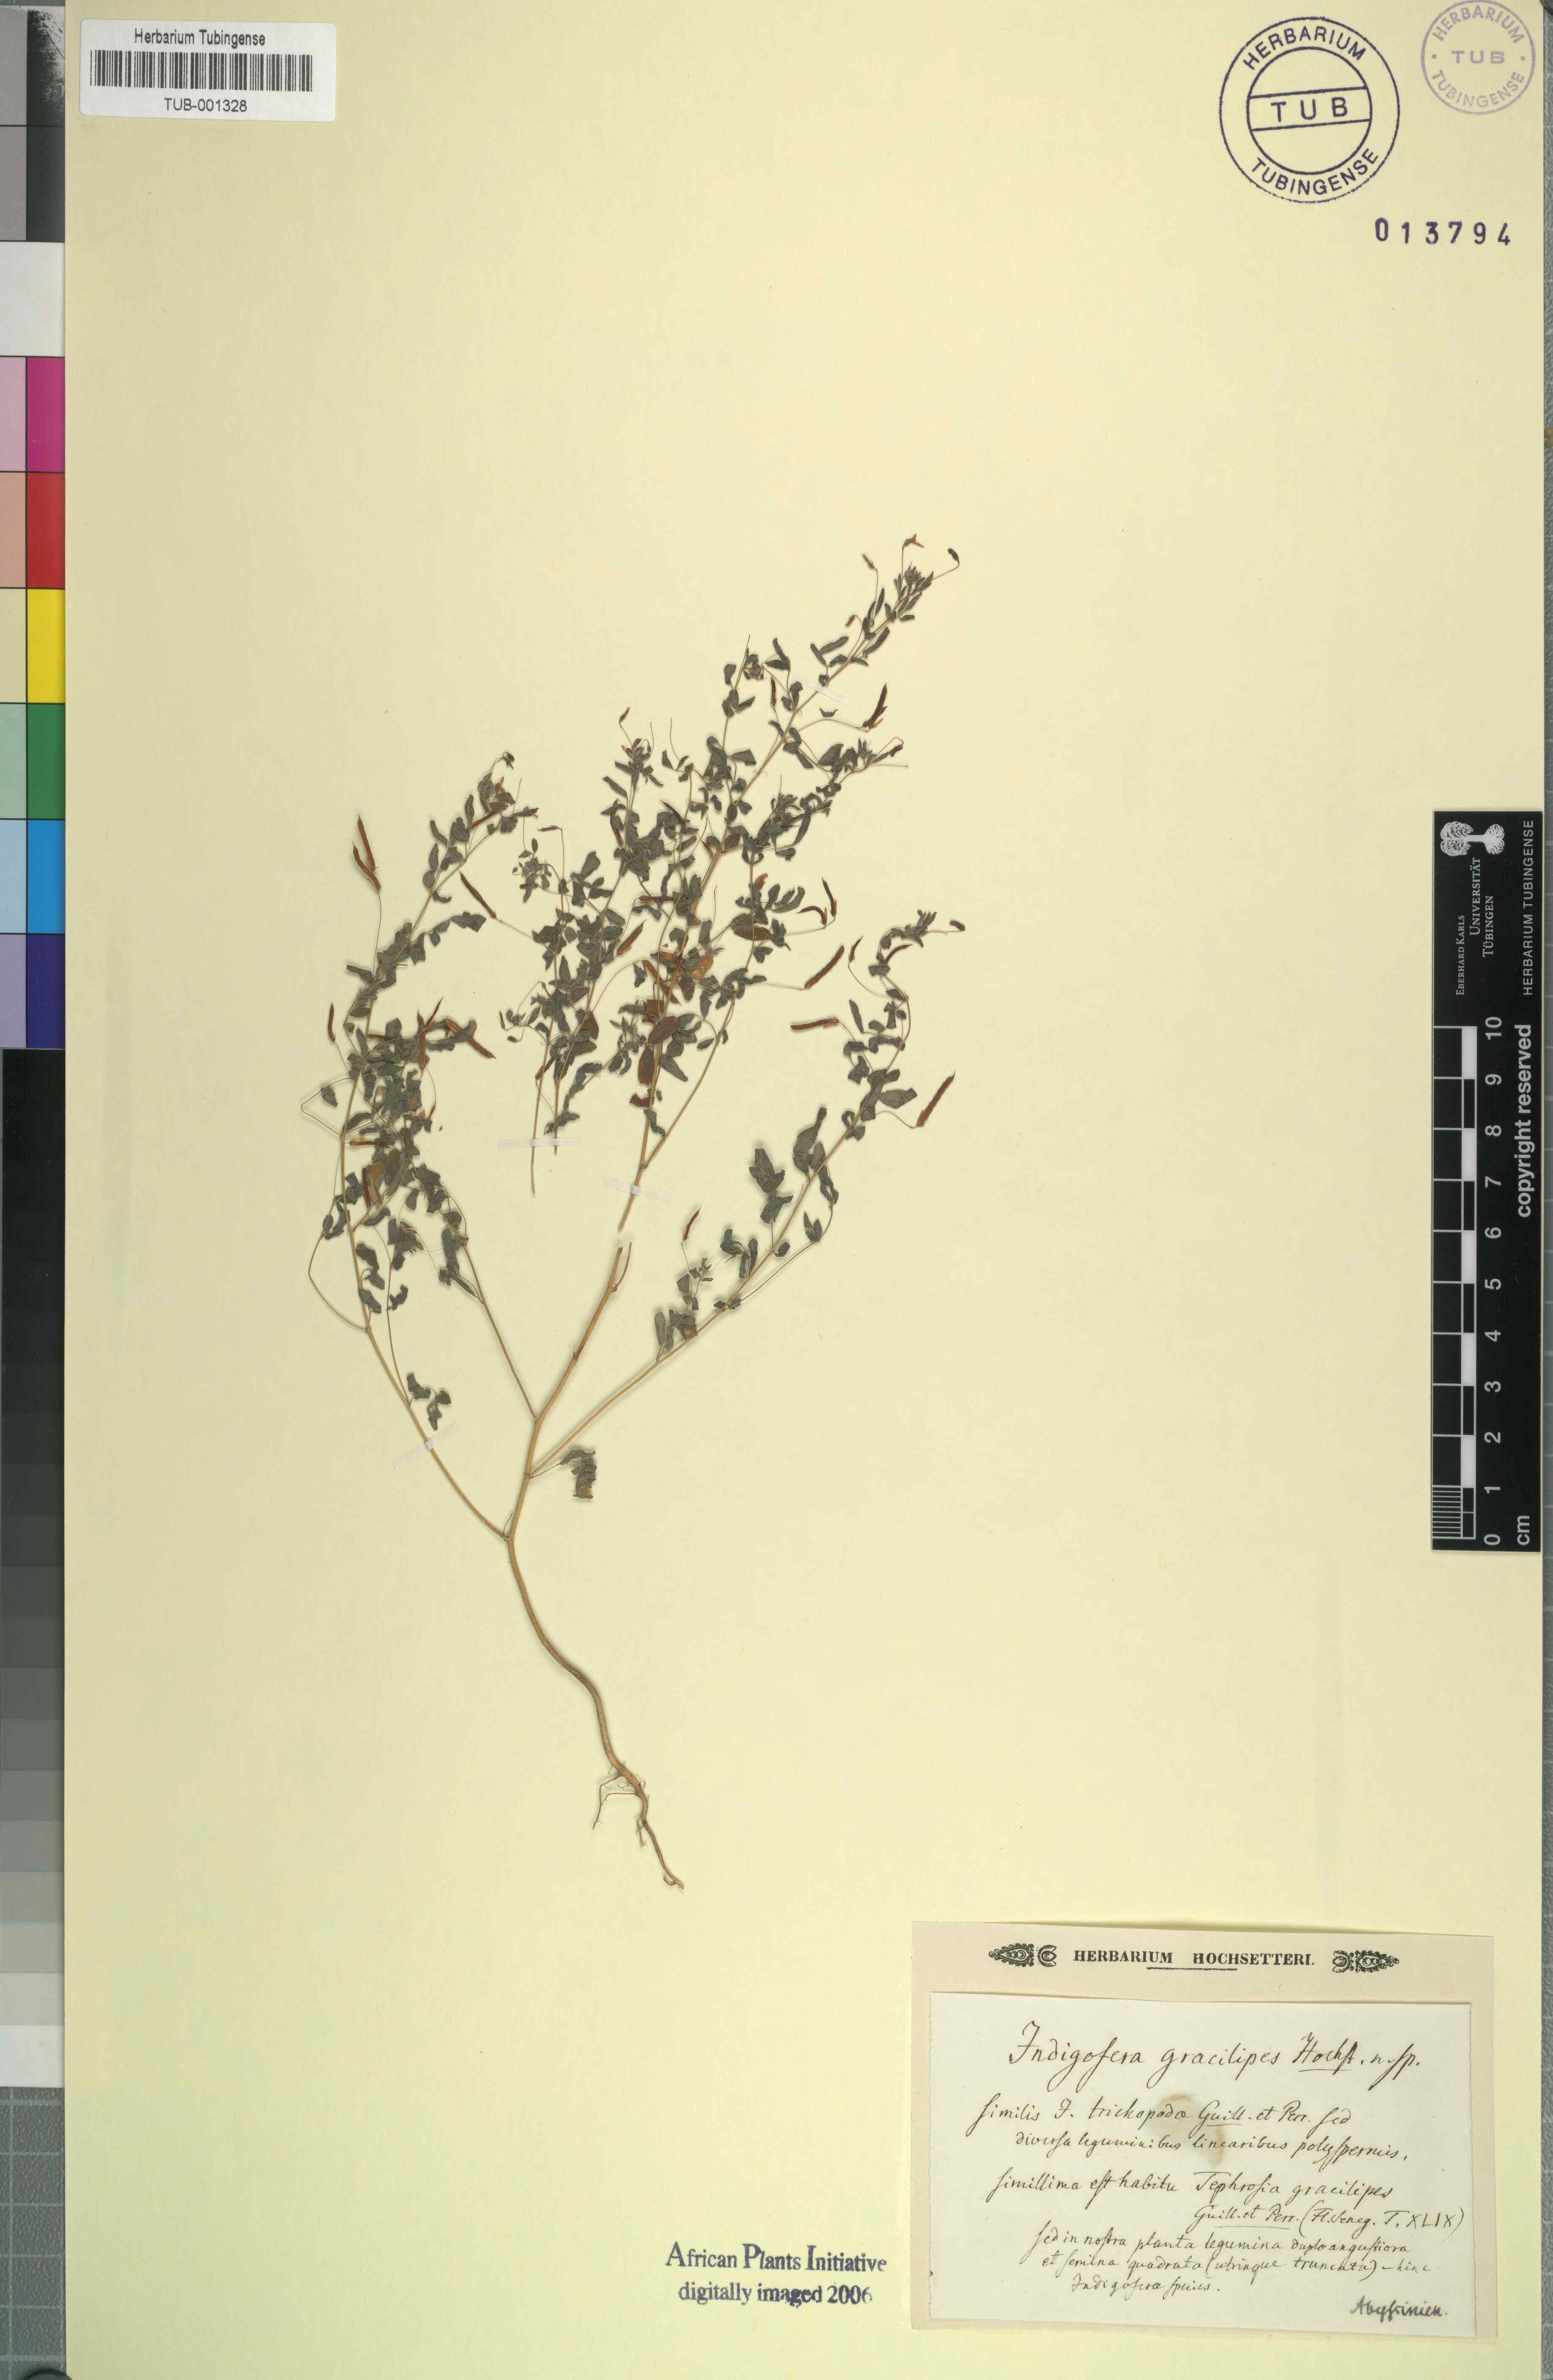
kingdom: Plantae
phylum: Tracheophyta
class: Magnoliopsida
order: Fabales
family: Fabaceae
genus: Indigofera
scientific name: Indigofera
